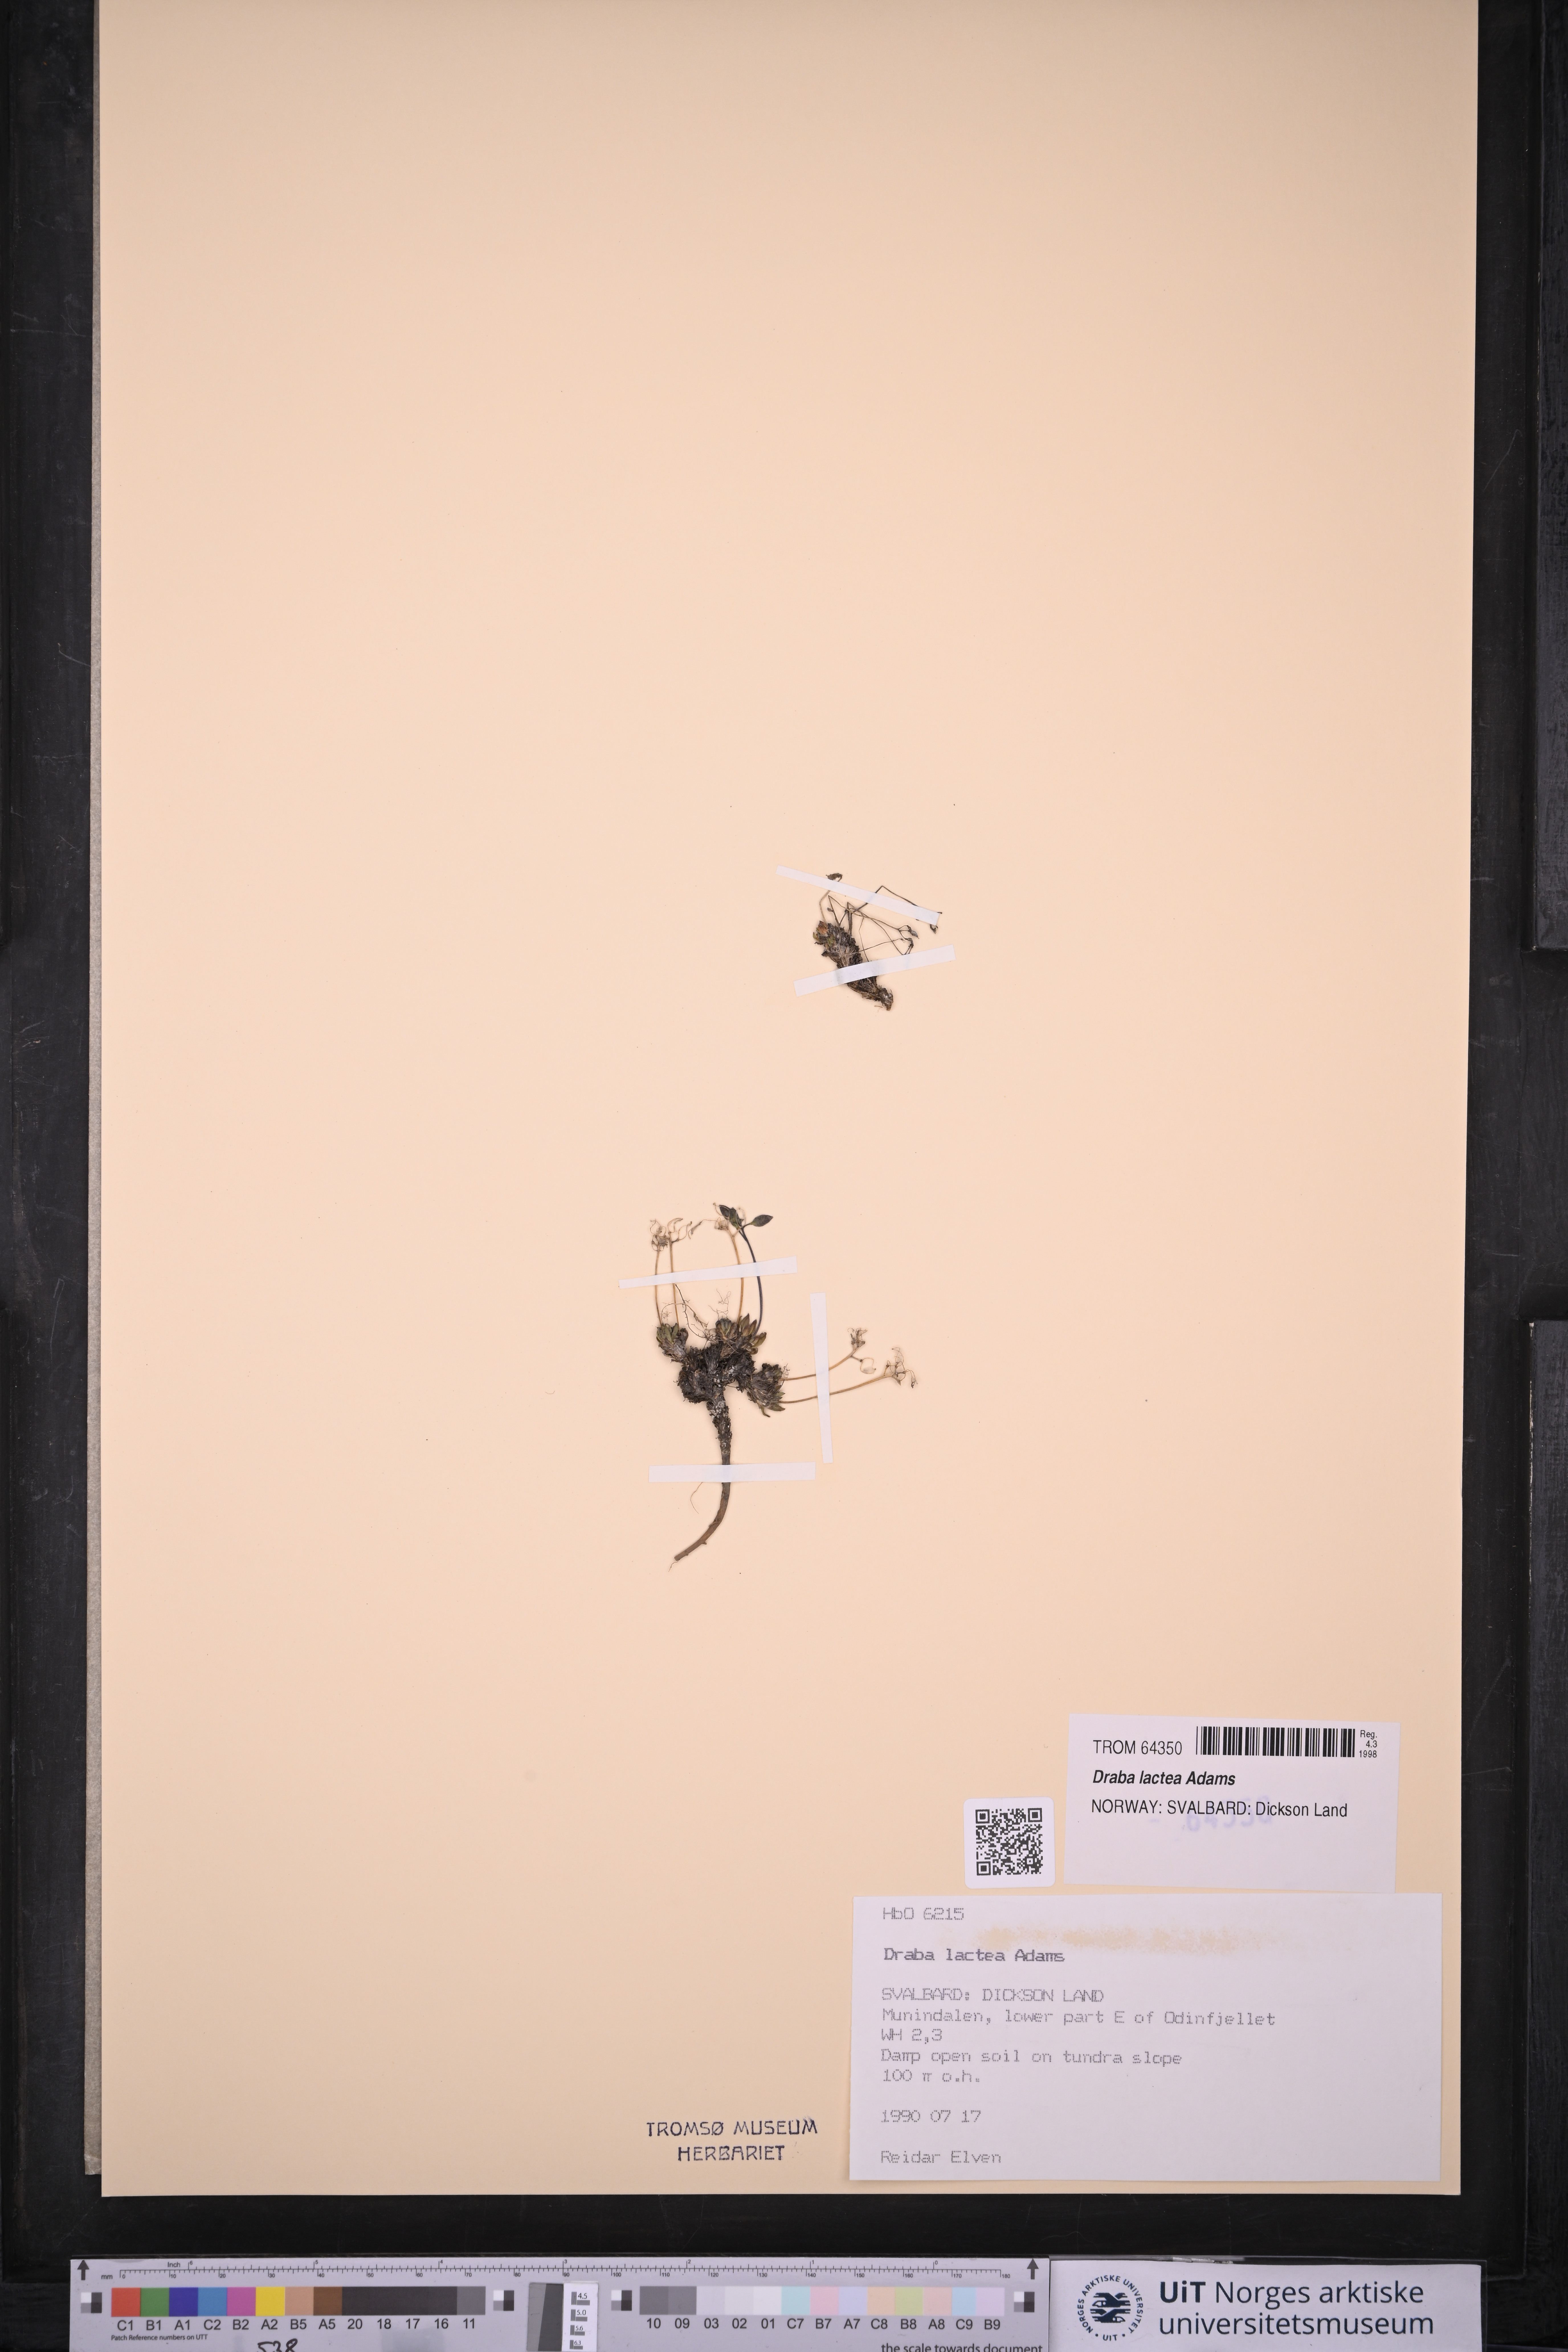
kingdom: Plantae
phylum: Tracheophyta
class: Magnoliopsida
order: Brassicales
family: Brassicaceae
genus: Draba
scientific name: Draba lactea
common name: Milky draba
